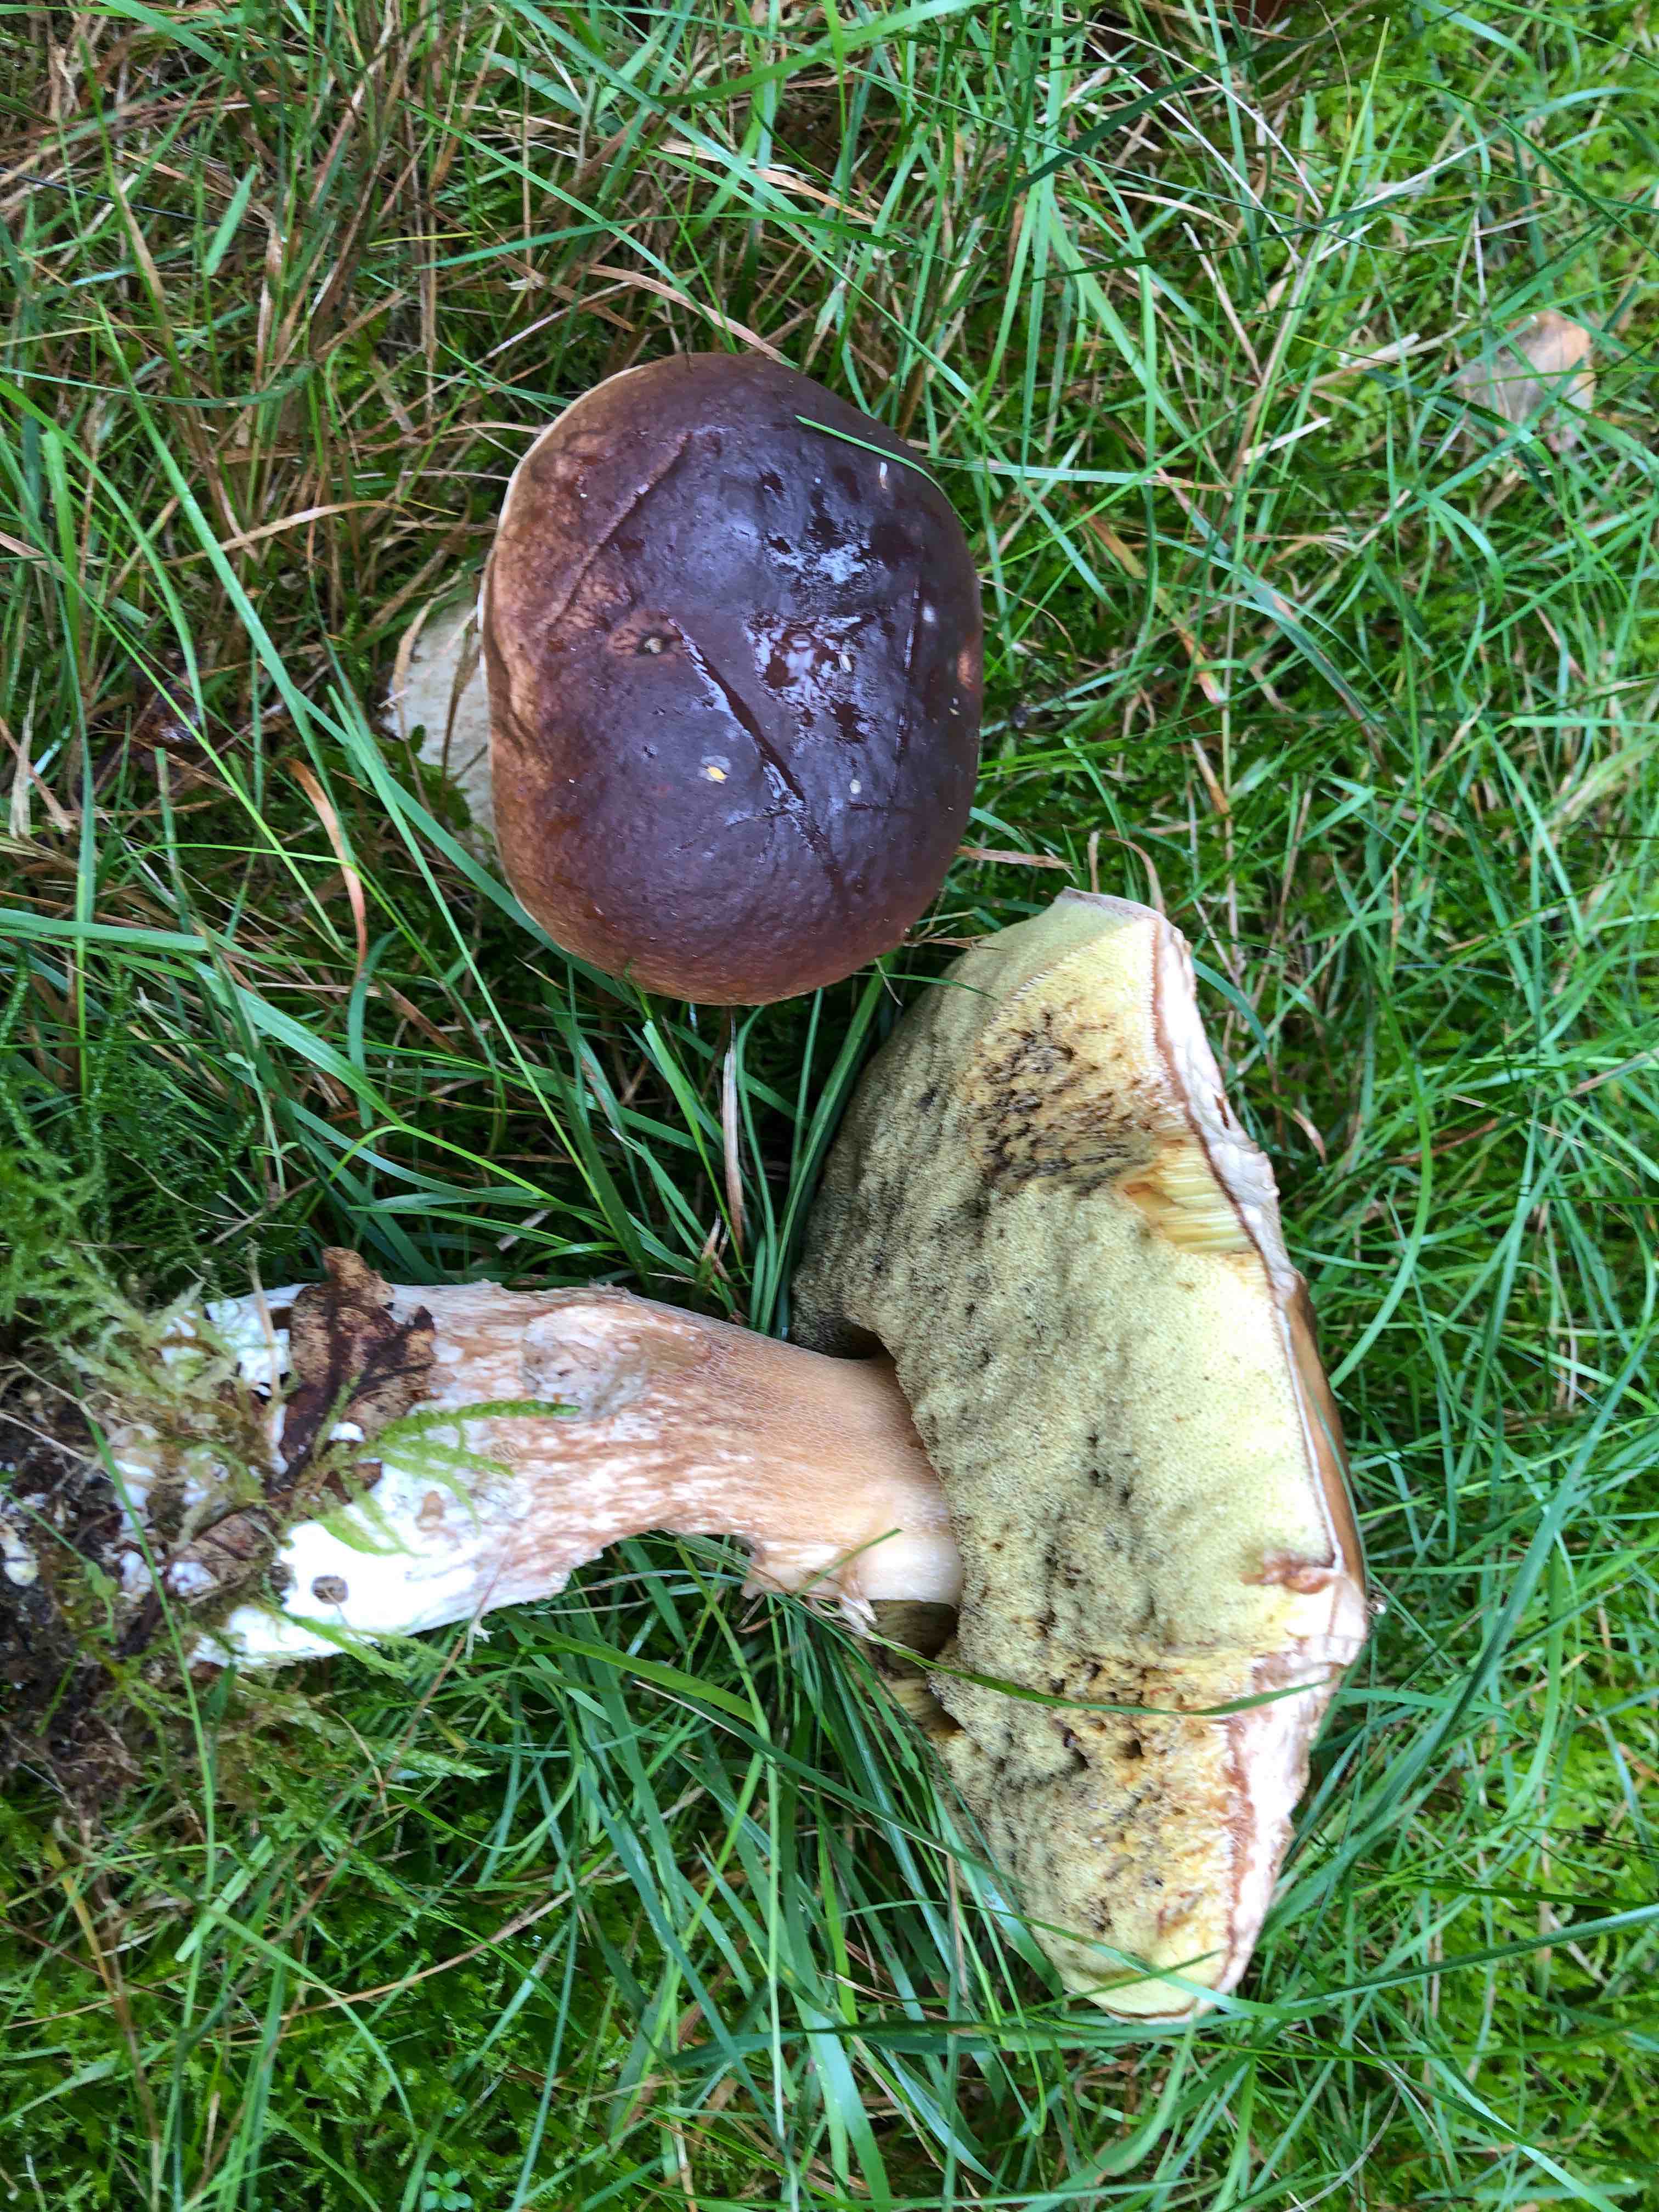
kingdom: Fungi
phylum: Basidiomycota
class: Agaricomycetes
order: Boletales
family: Boletaceae
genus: Boletus
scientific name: Boletus edulis
